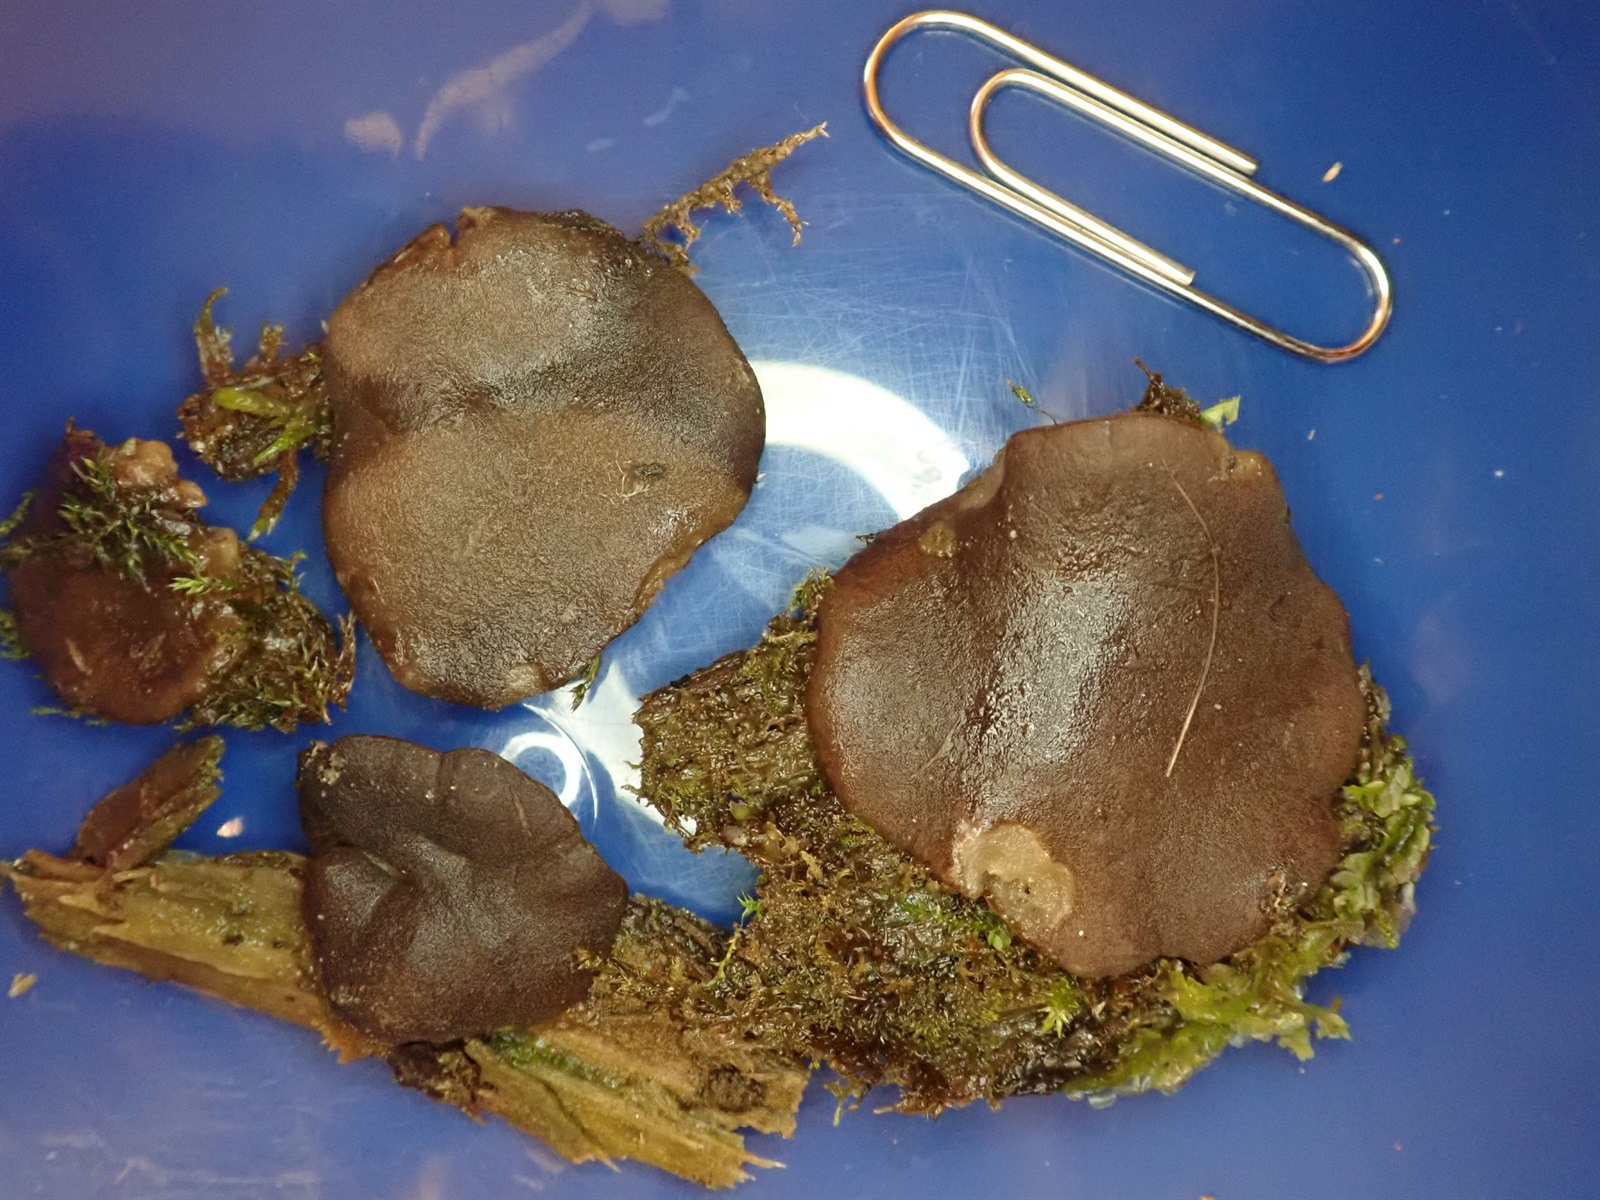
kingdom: Fungi
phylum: Ascomycota
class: Pezizomycetes
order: Pezizales
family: Pezizaceae
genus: Pachyella
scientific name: Pachyella violaceonigra
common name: Midnight disco
